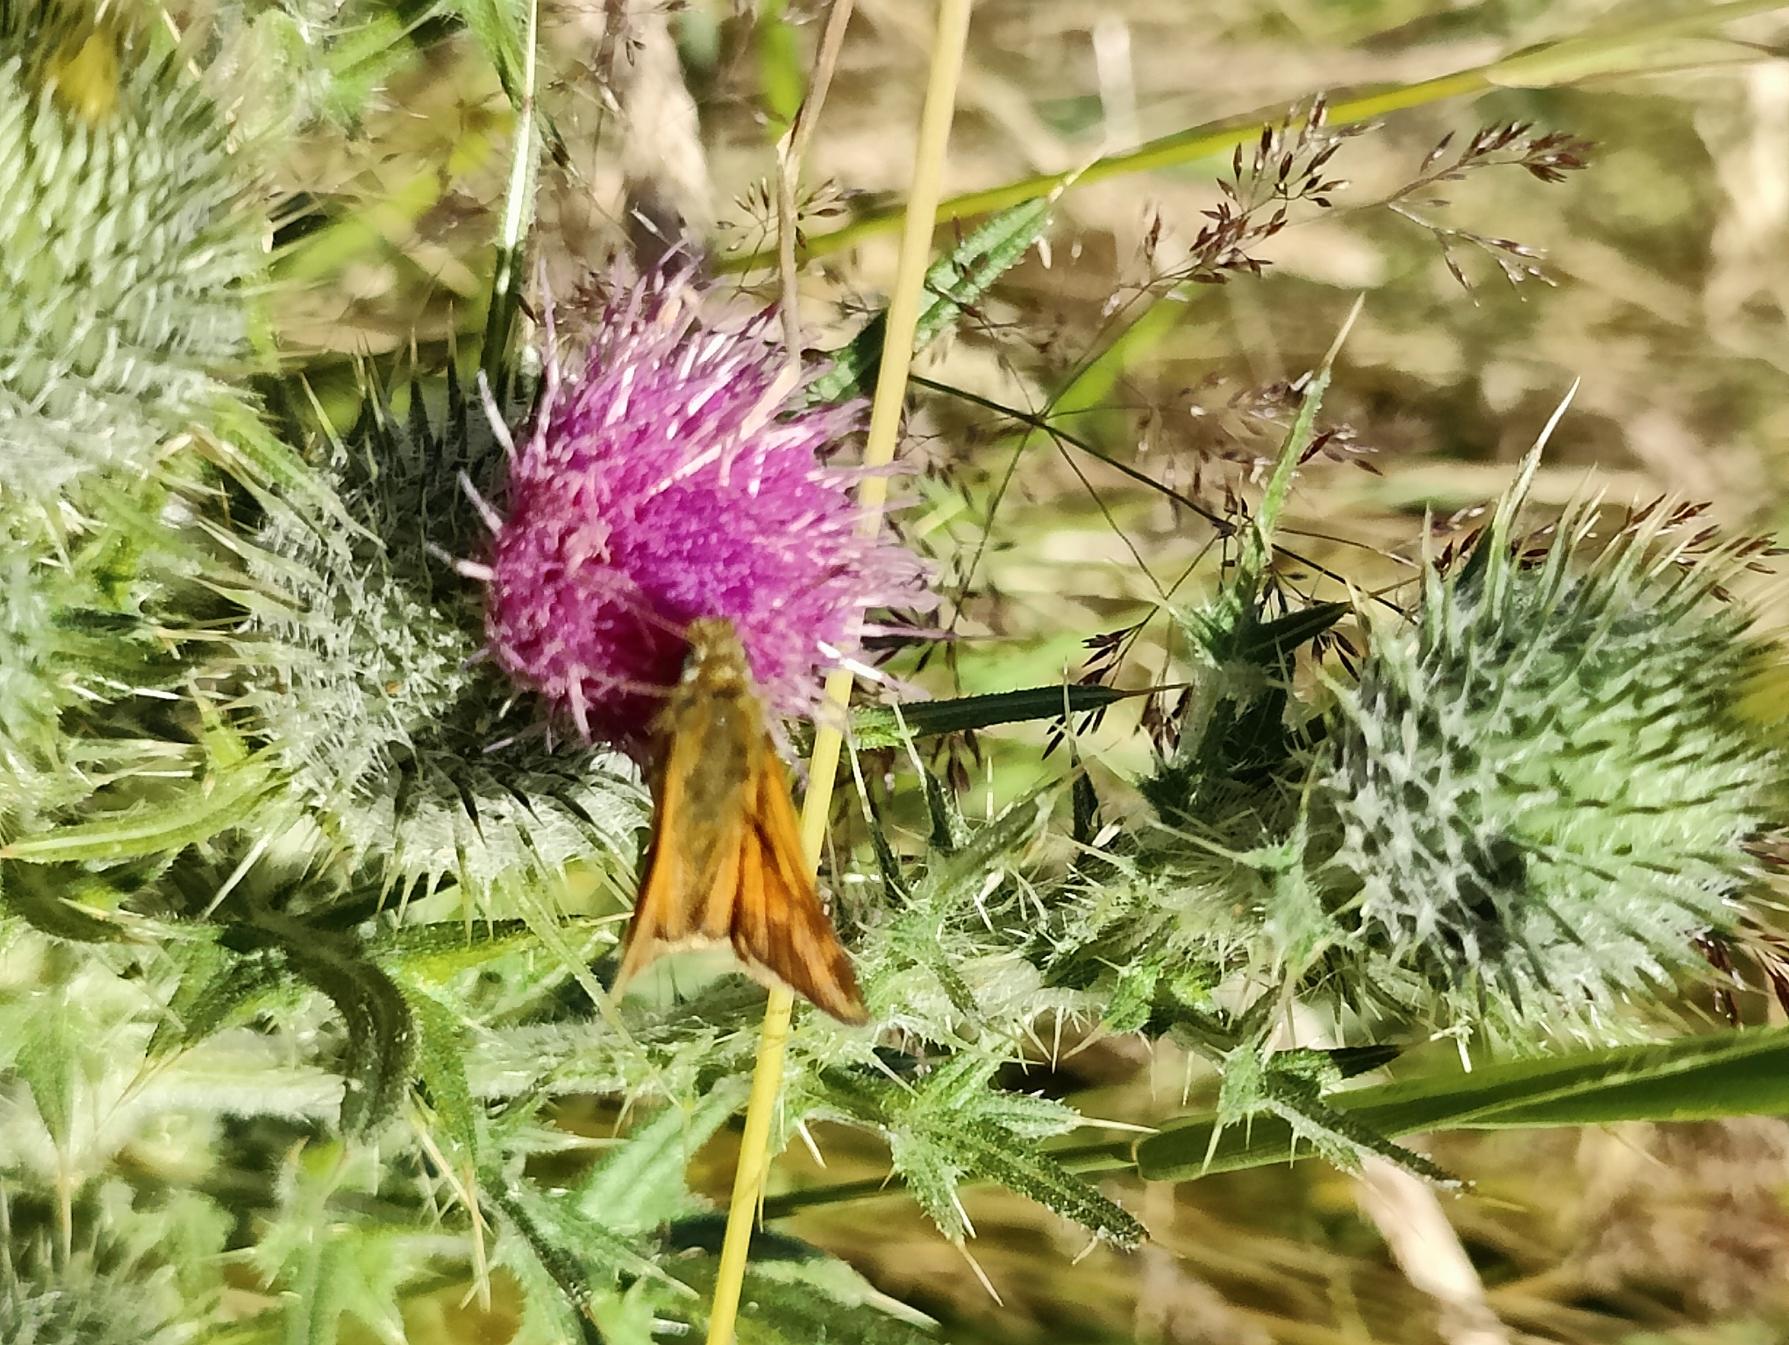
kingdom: Animalia
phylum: Arthropoda
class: Insecta
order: Lepidoptera
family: Hesperiidae
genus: Ochlodes
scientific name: Ochlodes venata
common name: Stor bredpande
